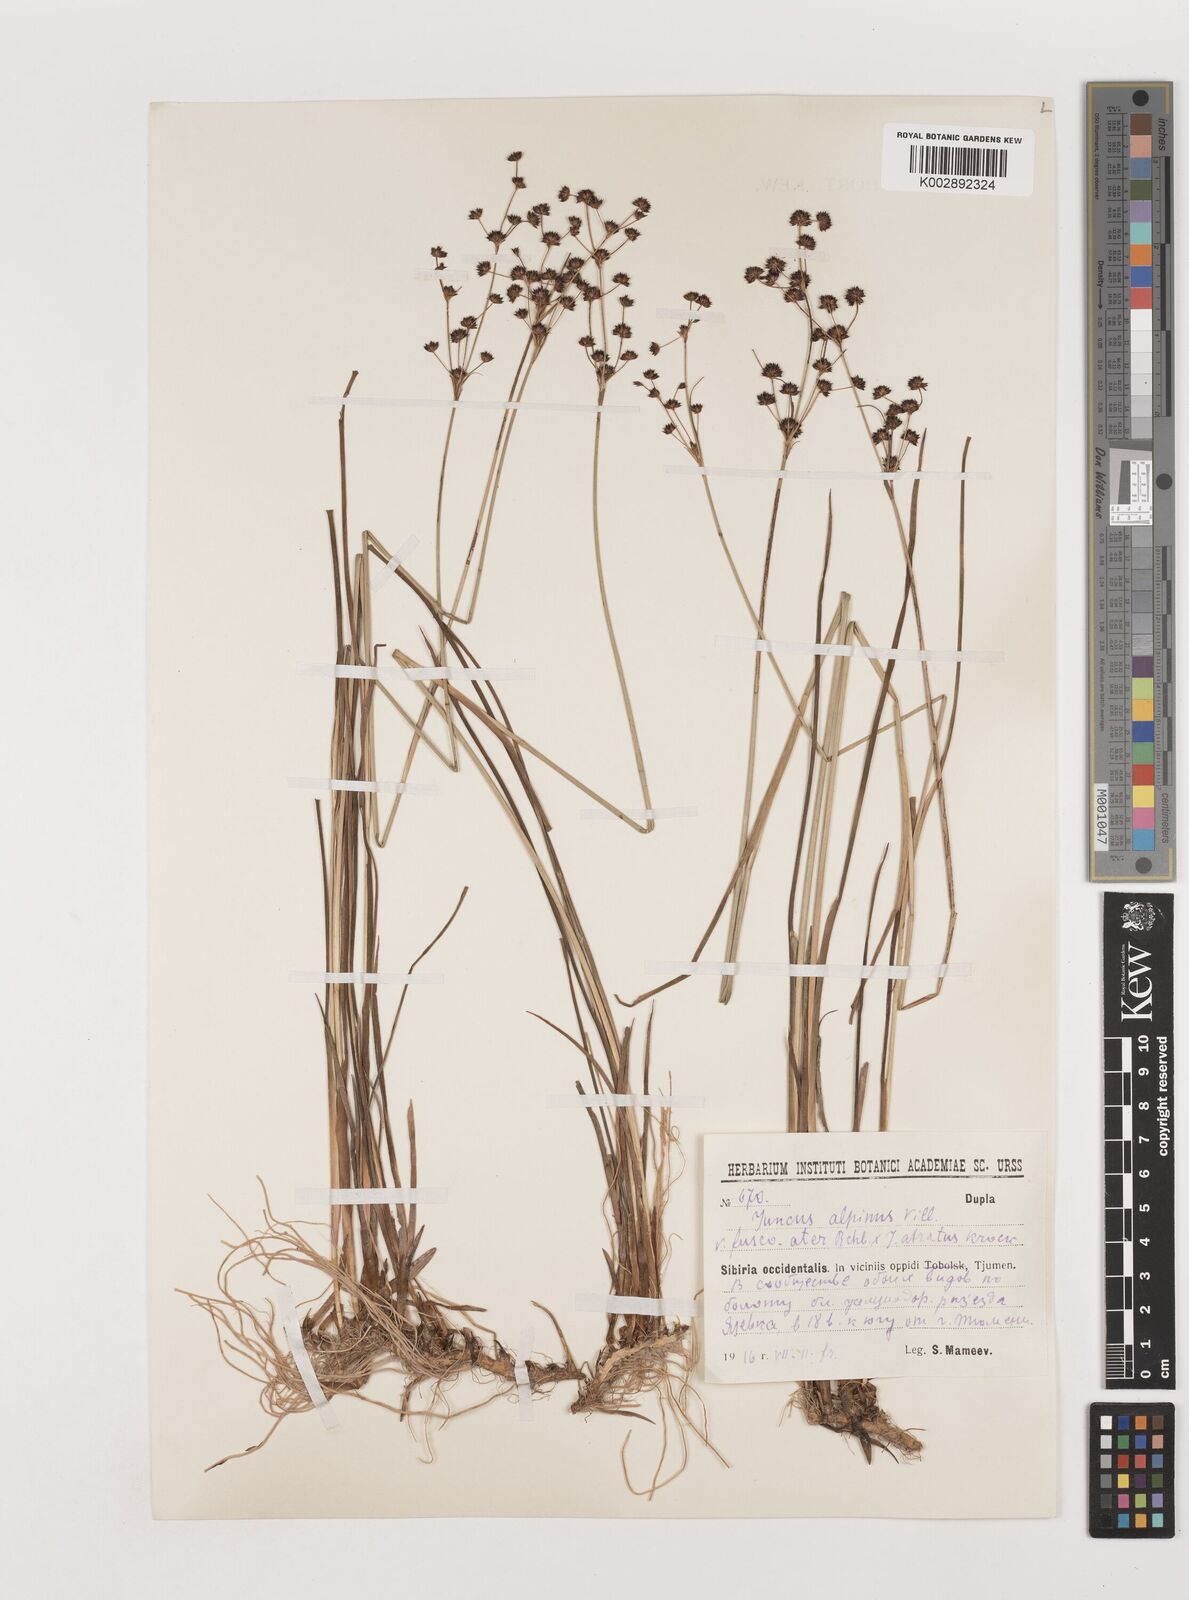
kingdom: Plantae
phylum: Tracheophyta
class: Liliopsida
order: Poales
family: Juncaceae
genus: Juncus
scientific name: Juncus alpinoarticulatus
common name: Alpine rush
